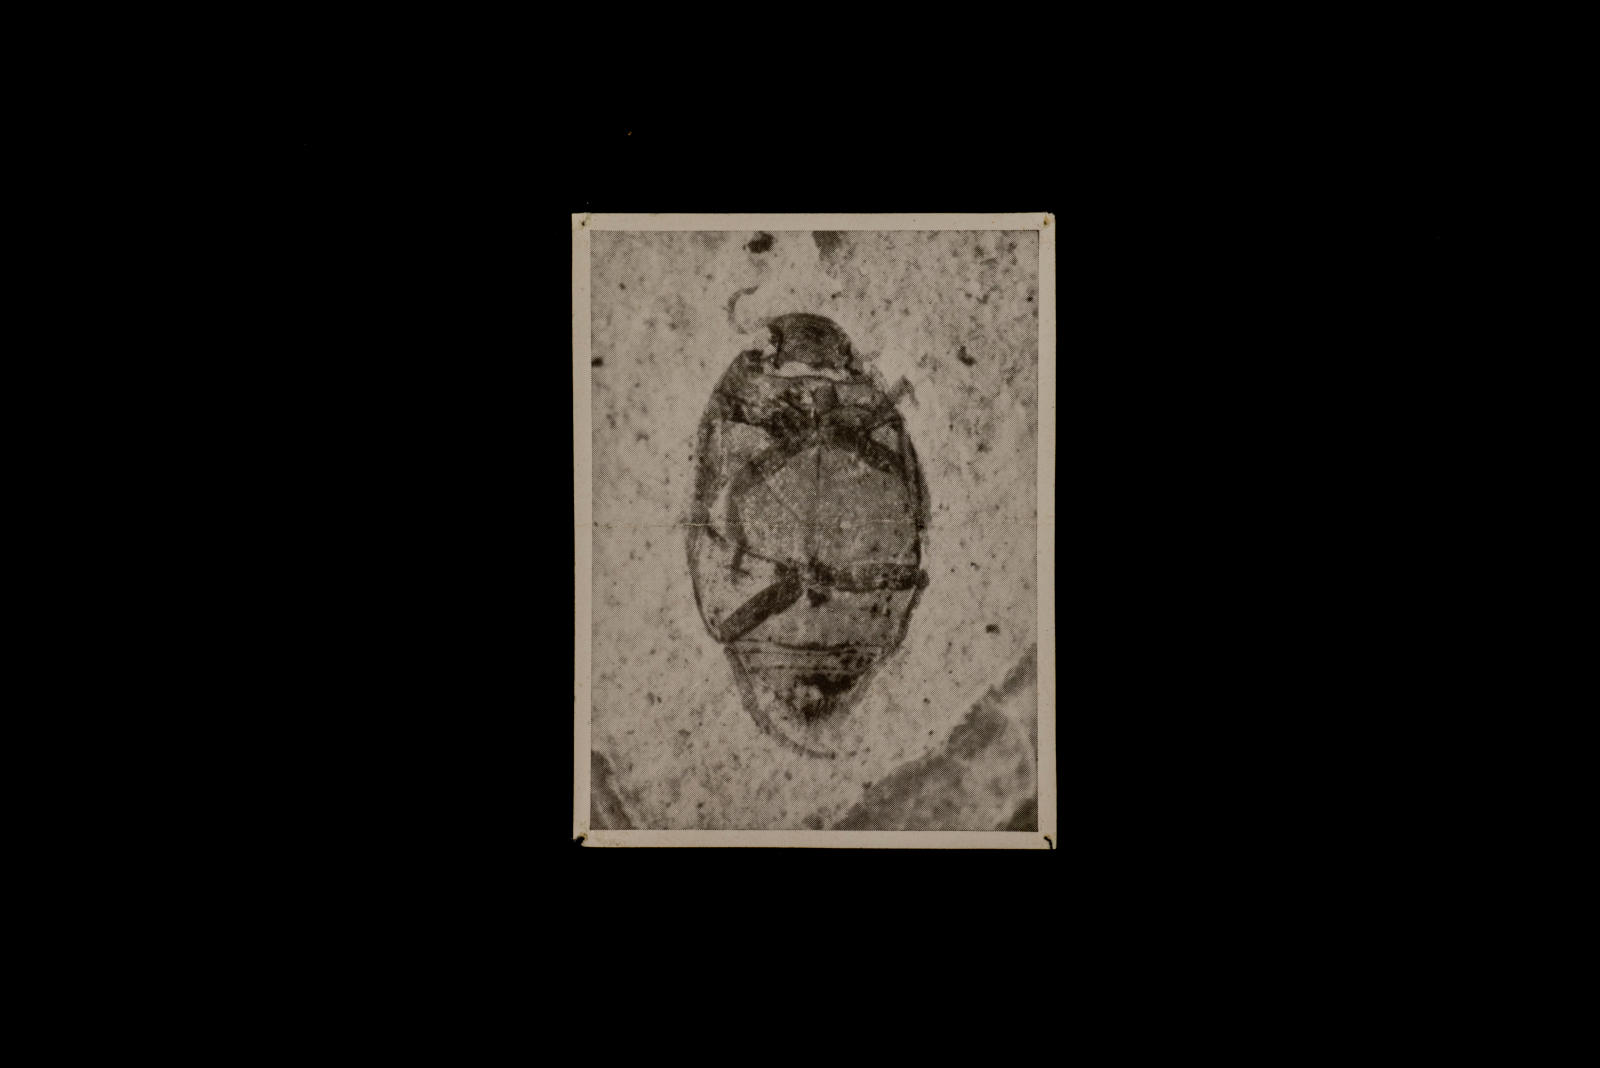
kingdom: Animalia
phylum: Arthropoda
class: Insecta
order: Coleoptera
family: Dytiscidae
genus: Oreodytes
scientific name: Oreodytes cryptolineatus
